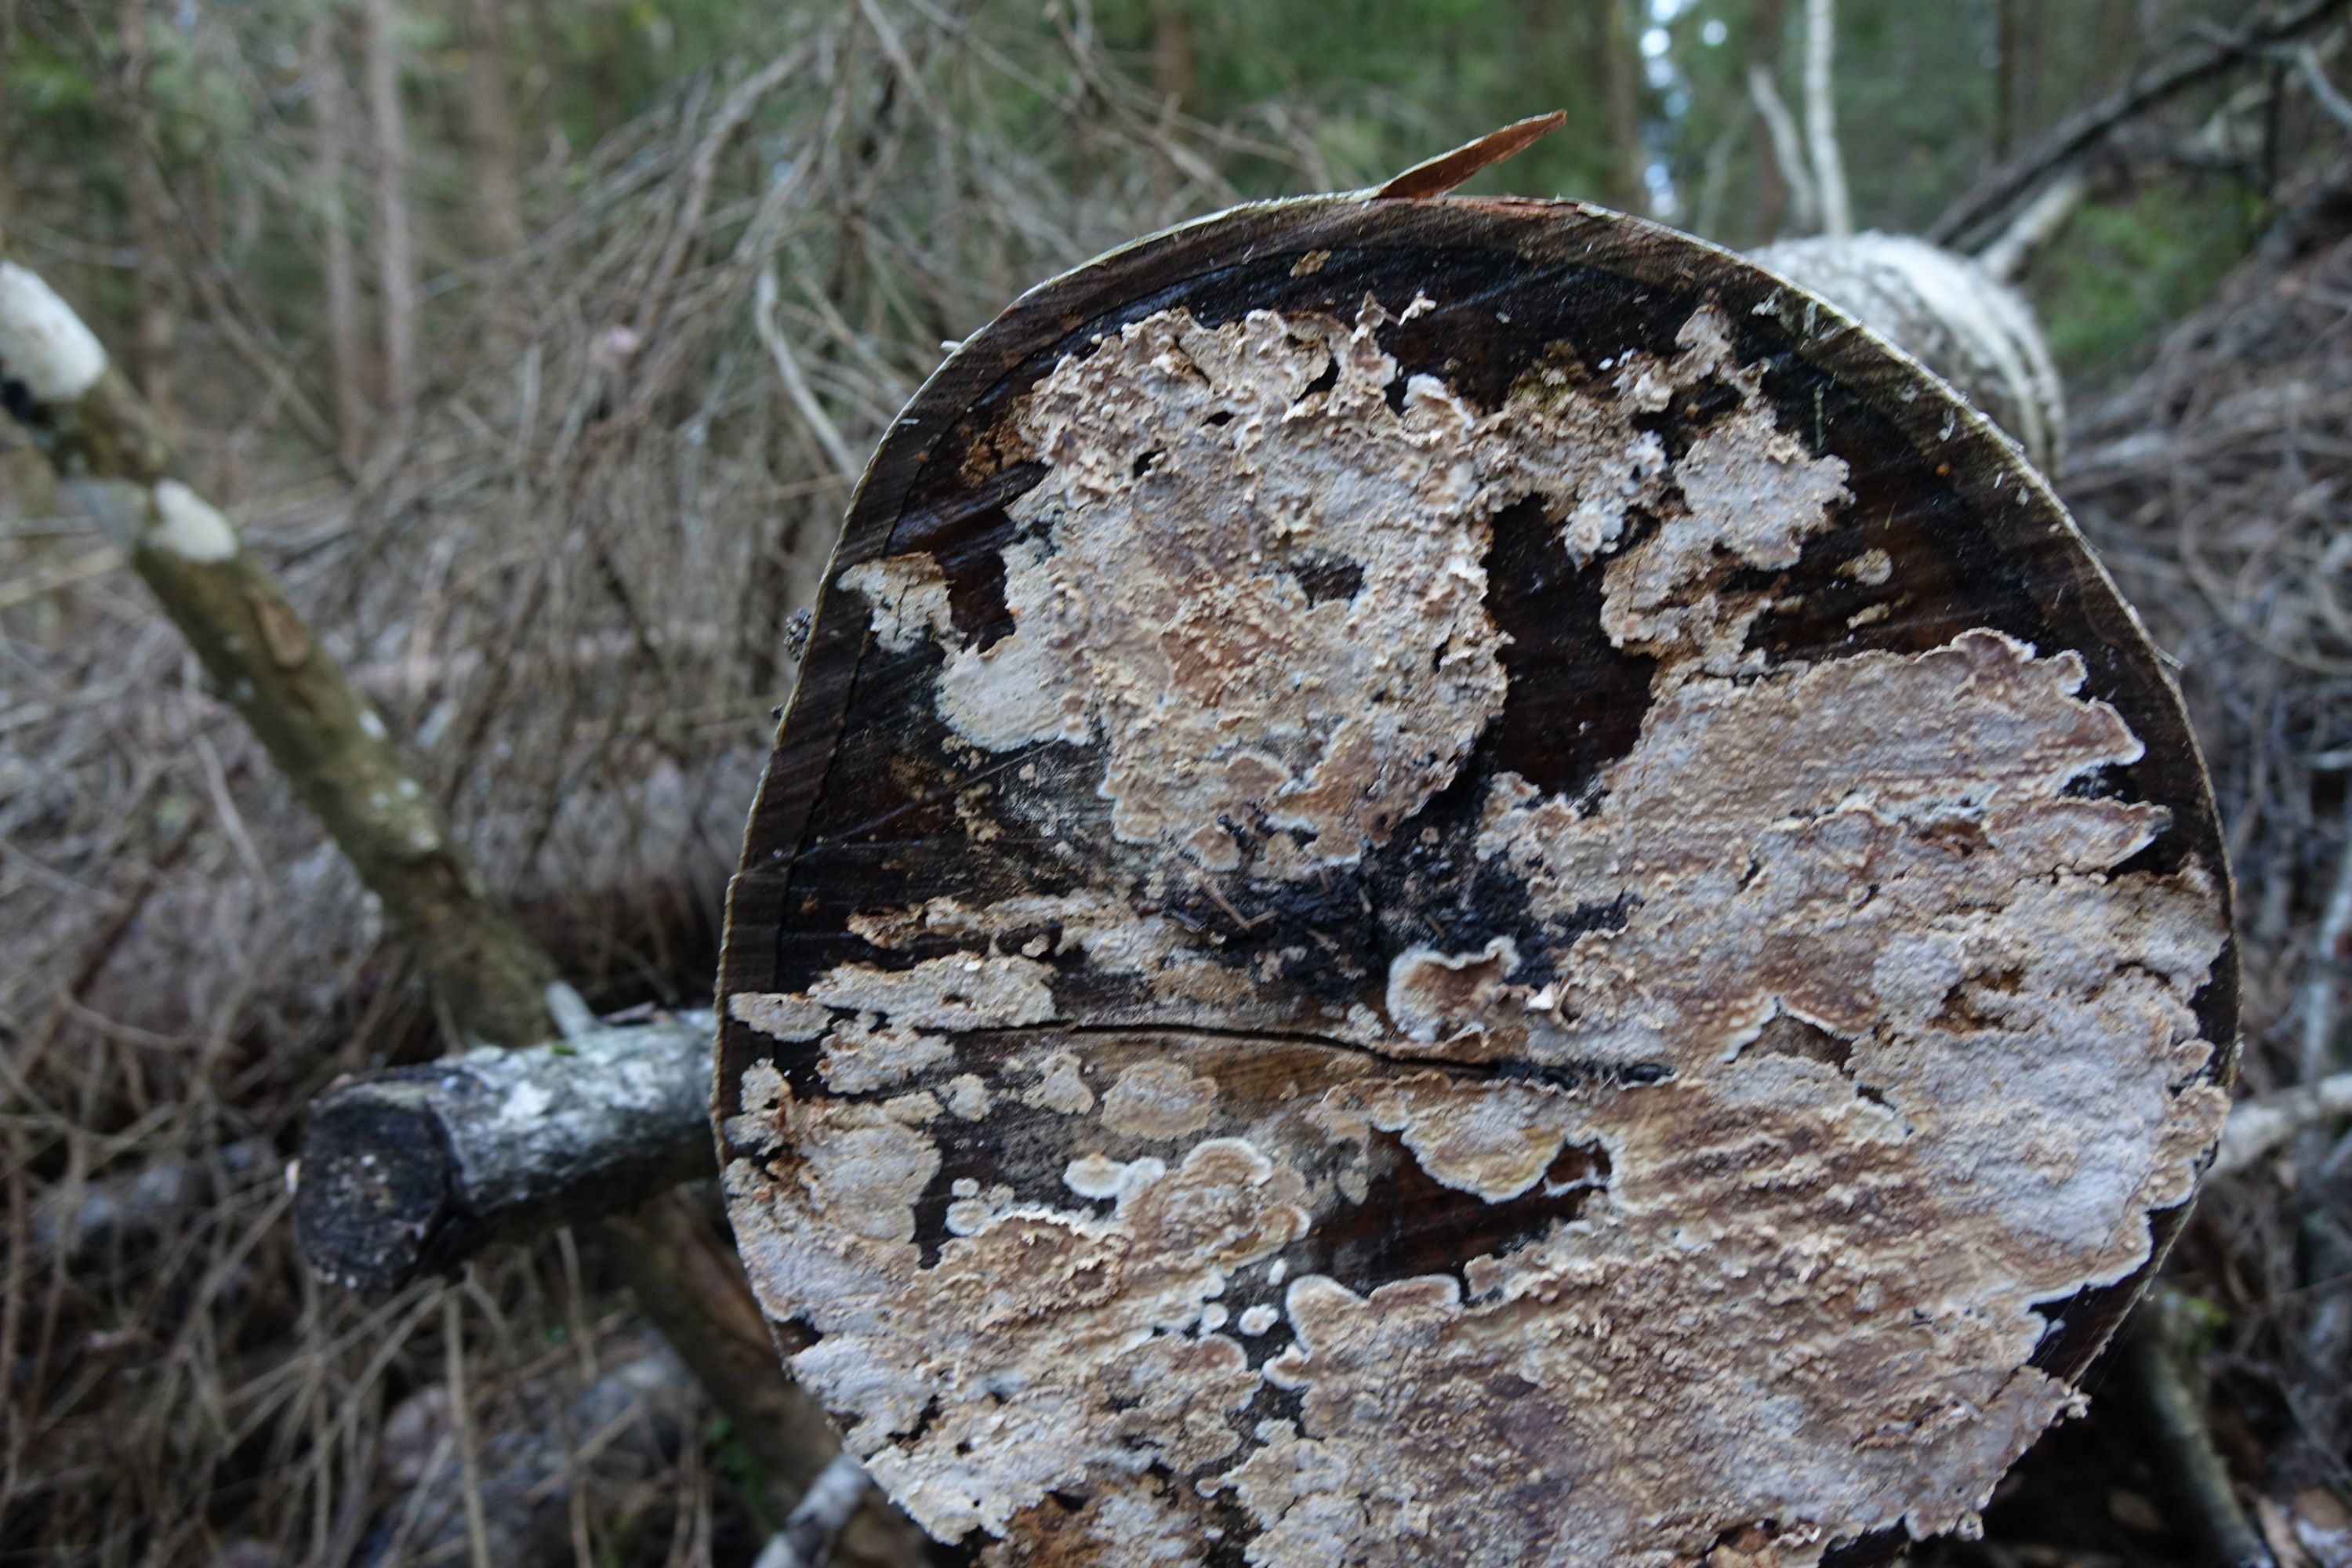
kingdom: Fungi
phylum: Basidiomycota
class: Agaricomycetes
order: Russulales
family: Peniophoraceae
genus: Scytinostroma
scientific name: Scytinostroma portentosum
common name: Mothball crust
